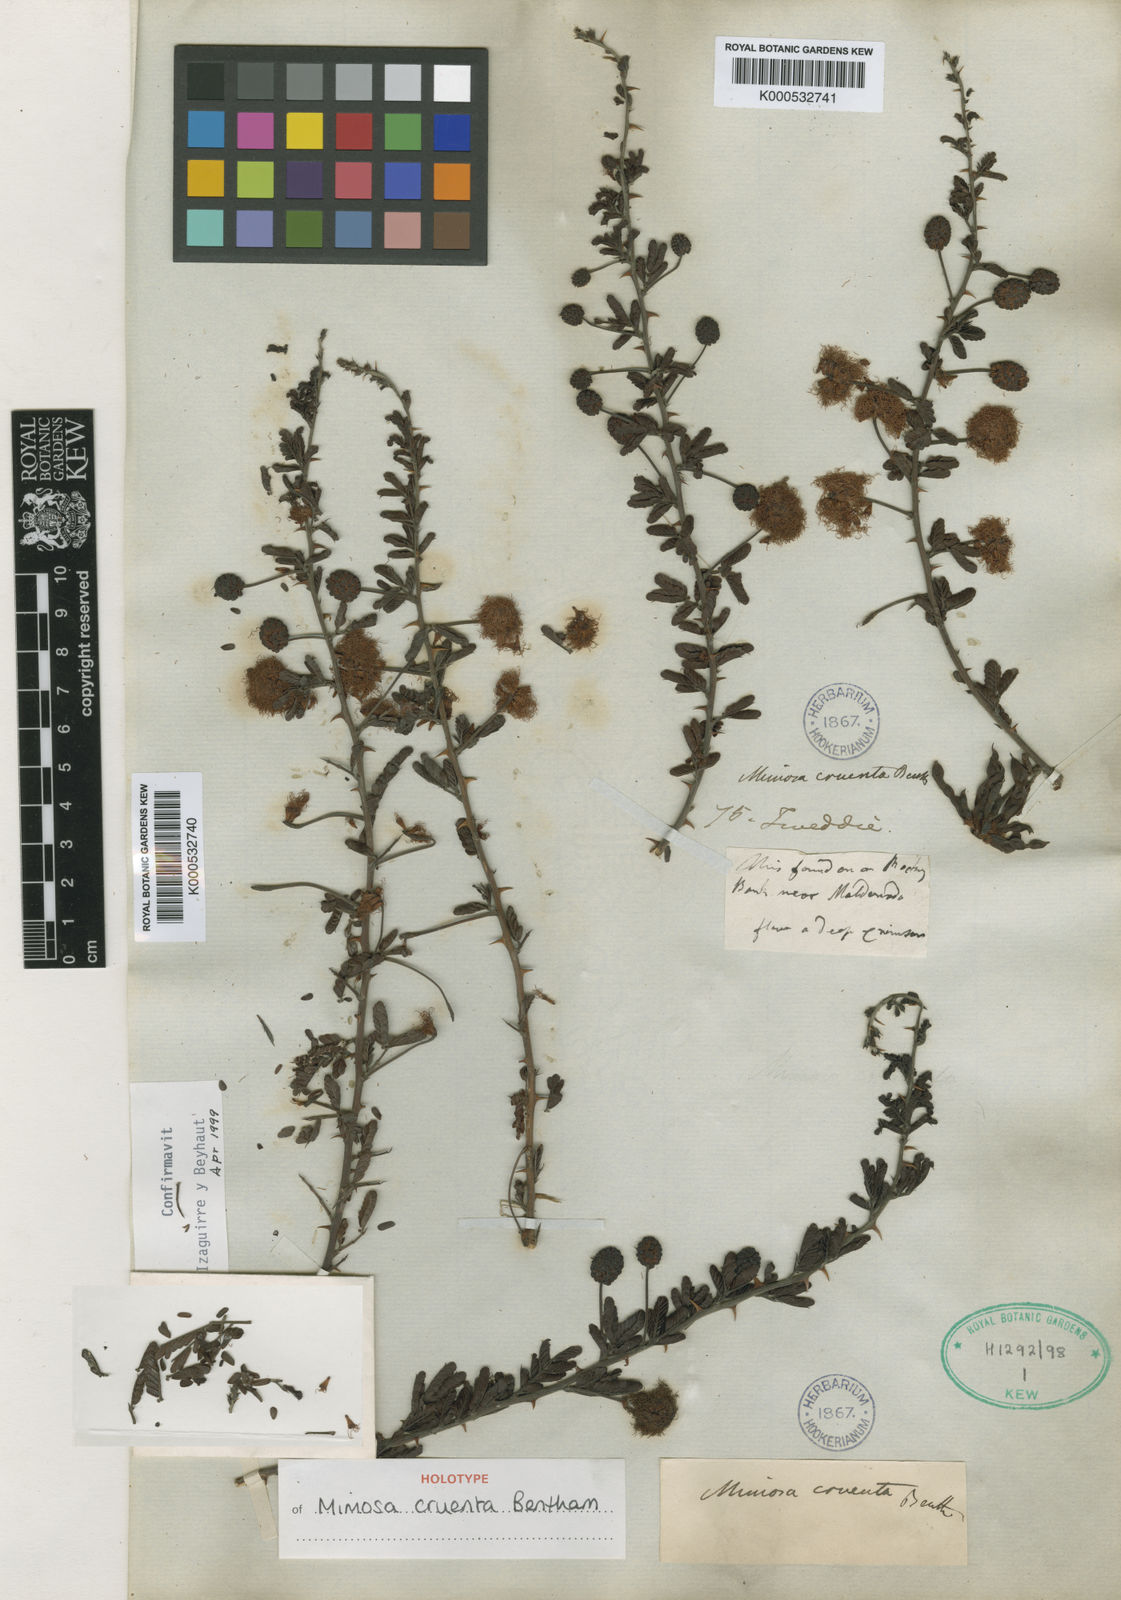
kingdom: Plantae
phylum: Tracheophyta
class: Magnoliopsida
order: Fabales
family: Fabaceae
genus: Mimosa
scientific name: Mimosa cruenta
